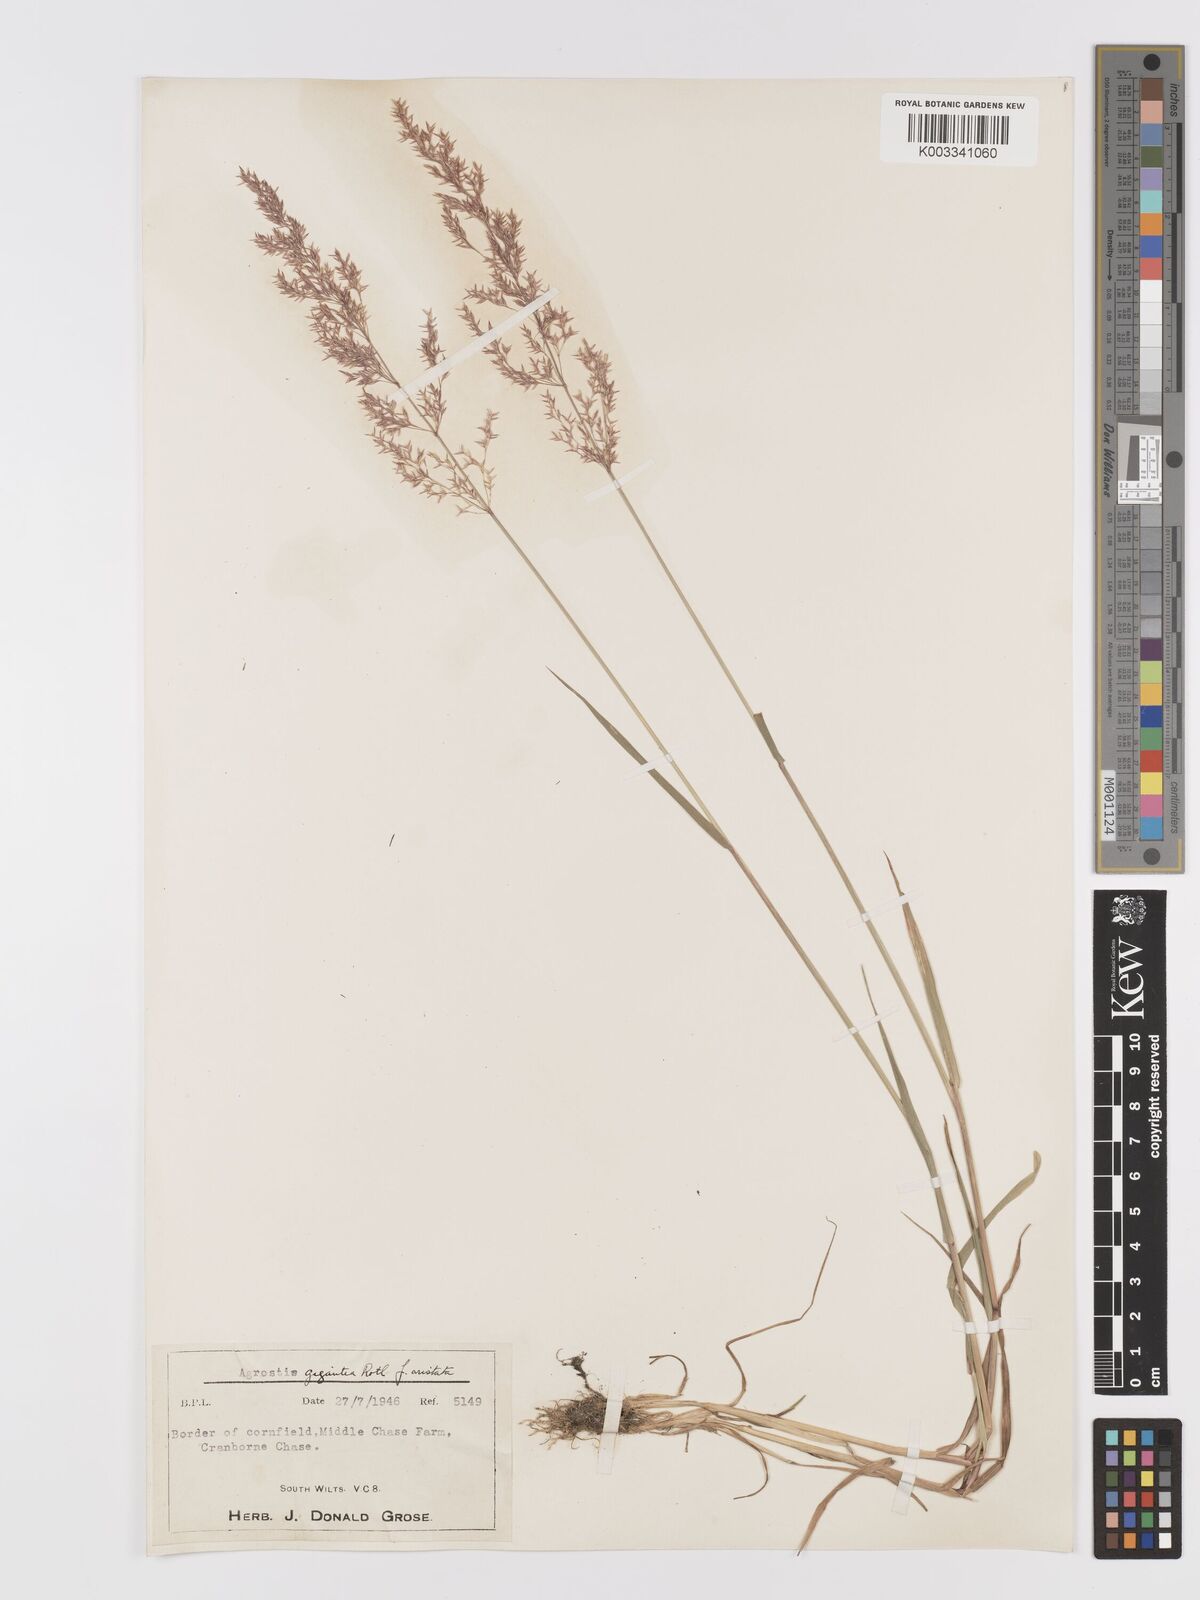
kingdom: Plantae
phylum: Tracheophyta
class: Liliopsida
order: Poales
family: Poaceae
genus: Agrostis
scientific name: Agrostis gigantea
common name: Black bent
